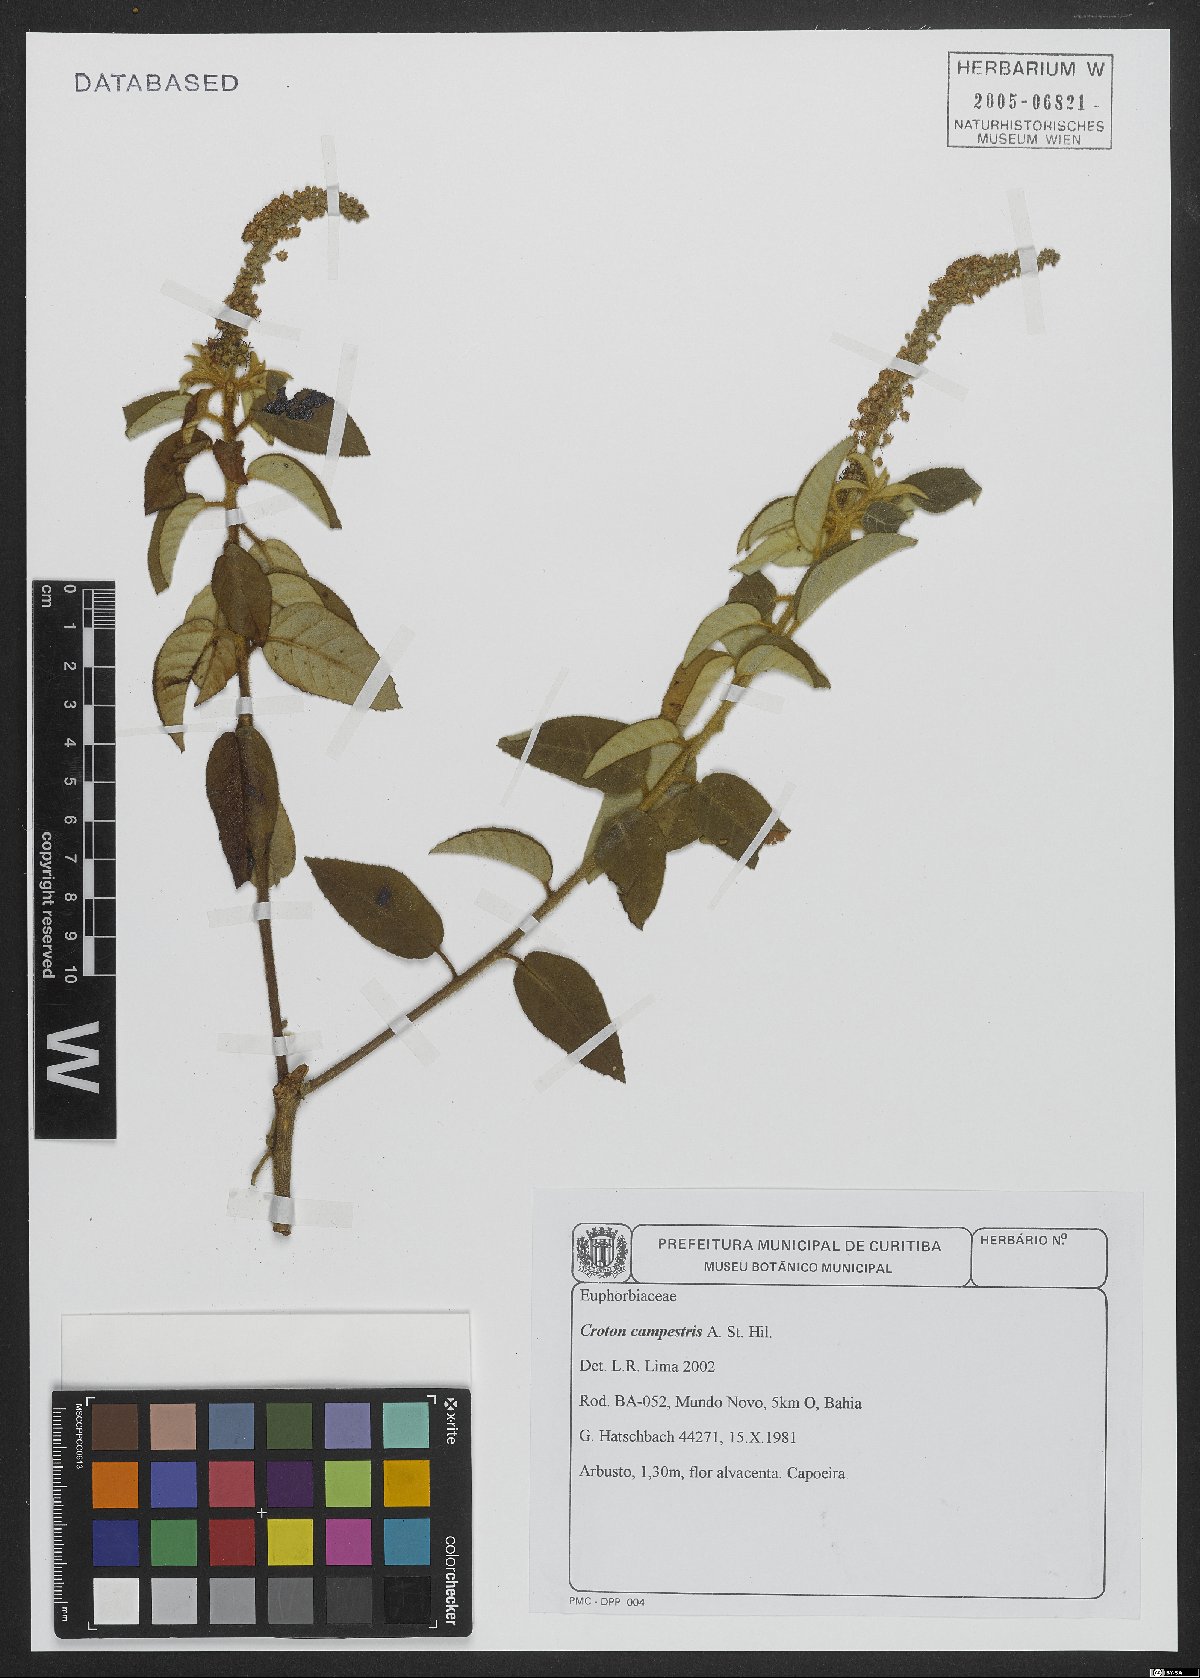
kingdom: Plantae
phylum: Tracheophyta
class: Magnoliopsida
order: Malpighiales
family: Euphorbiaceae
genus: Croton
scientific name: Croton campestris
